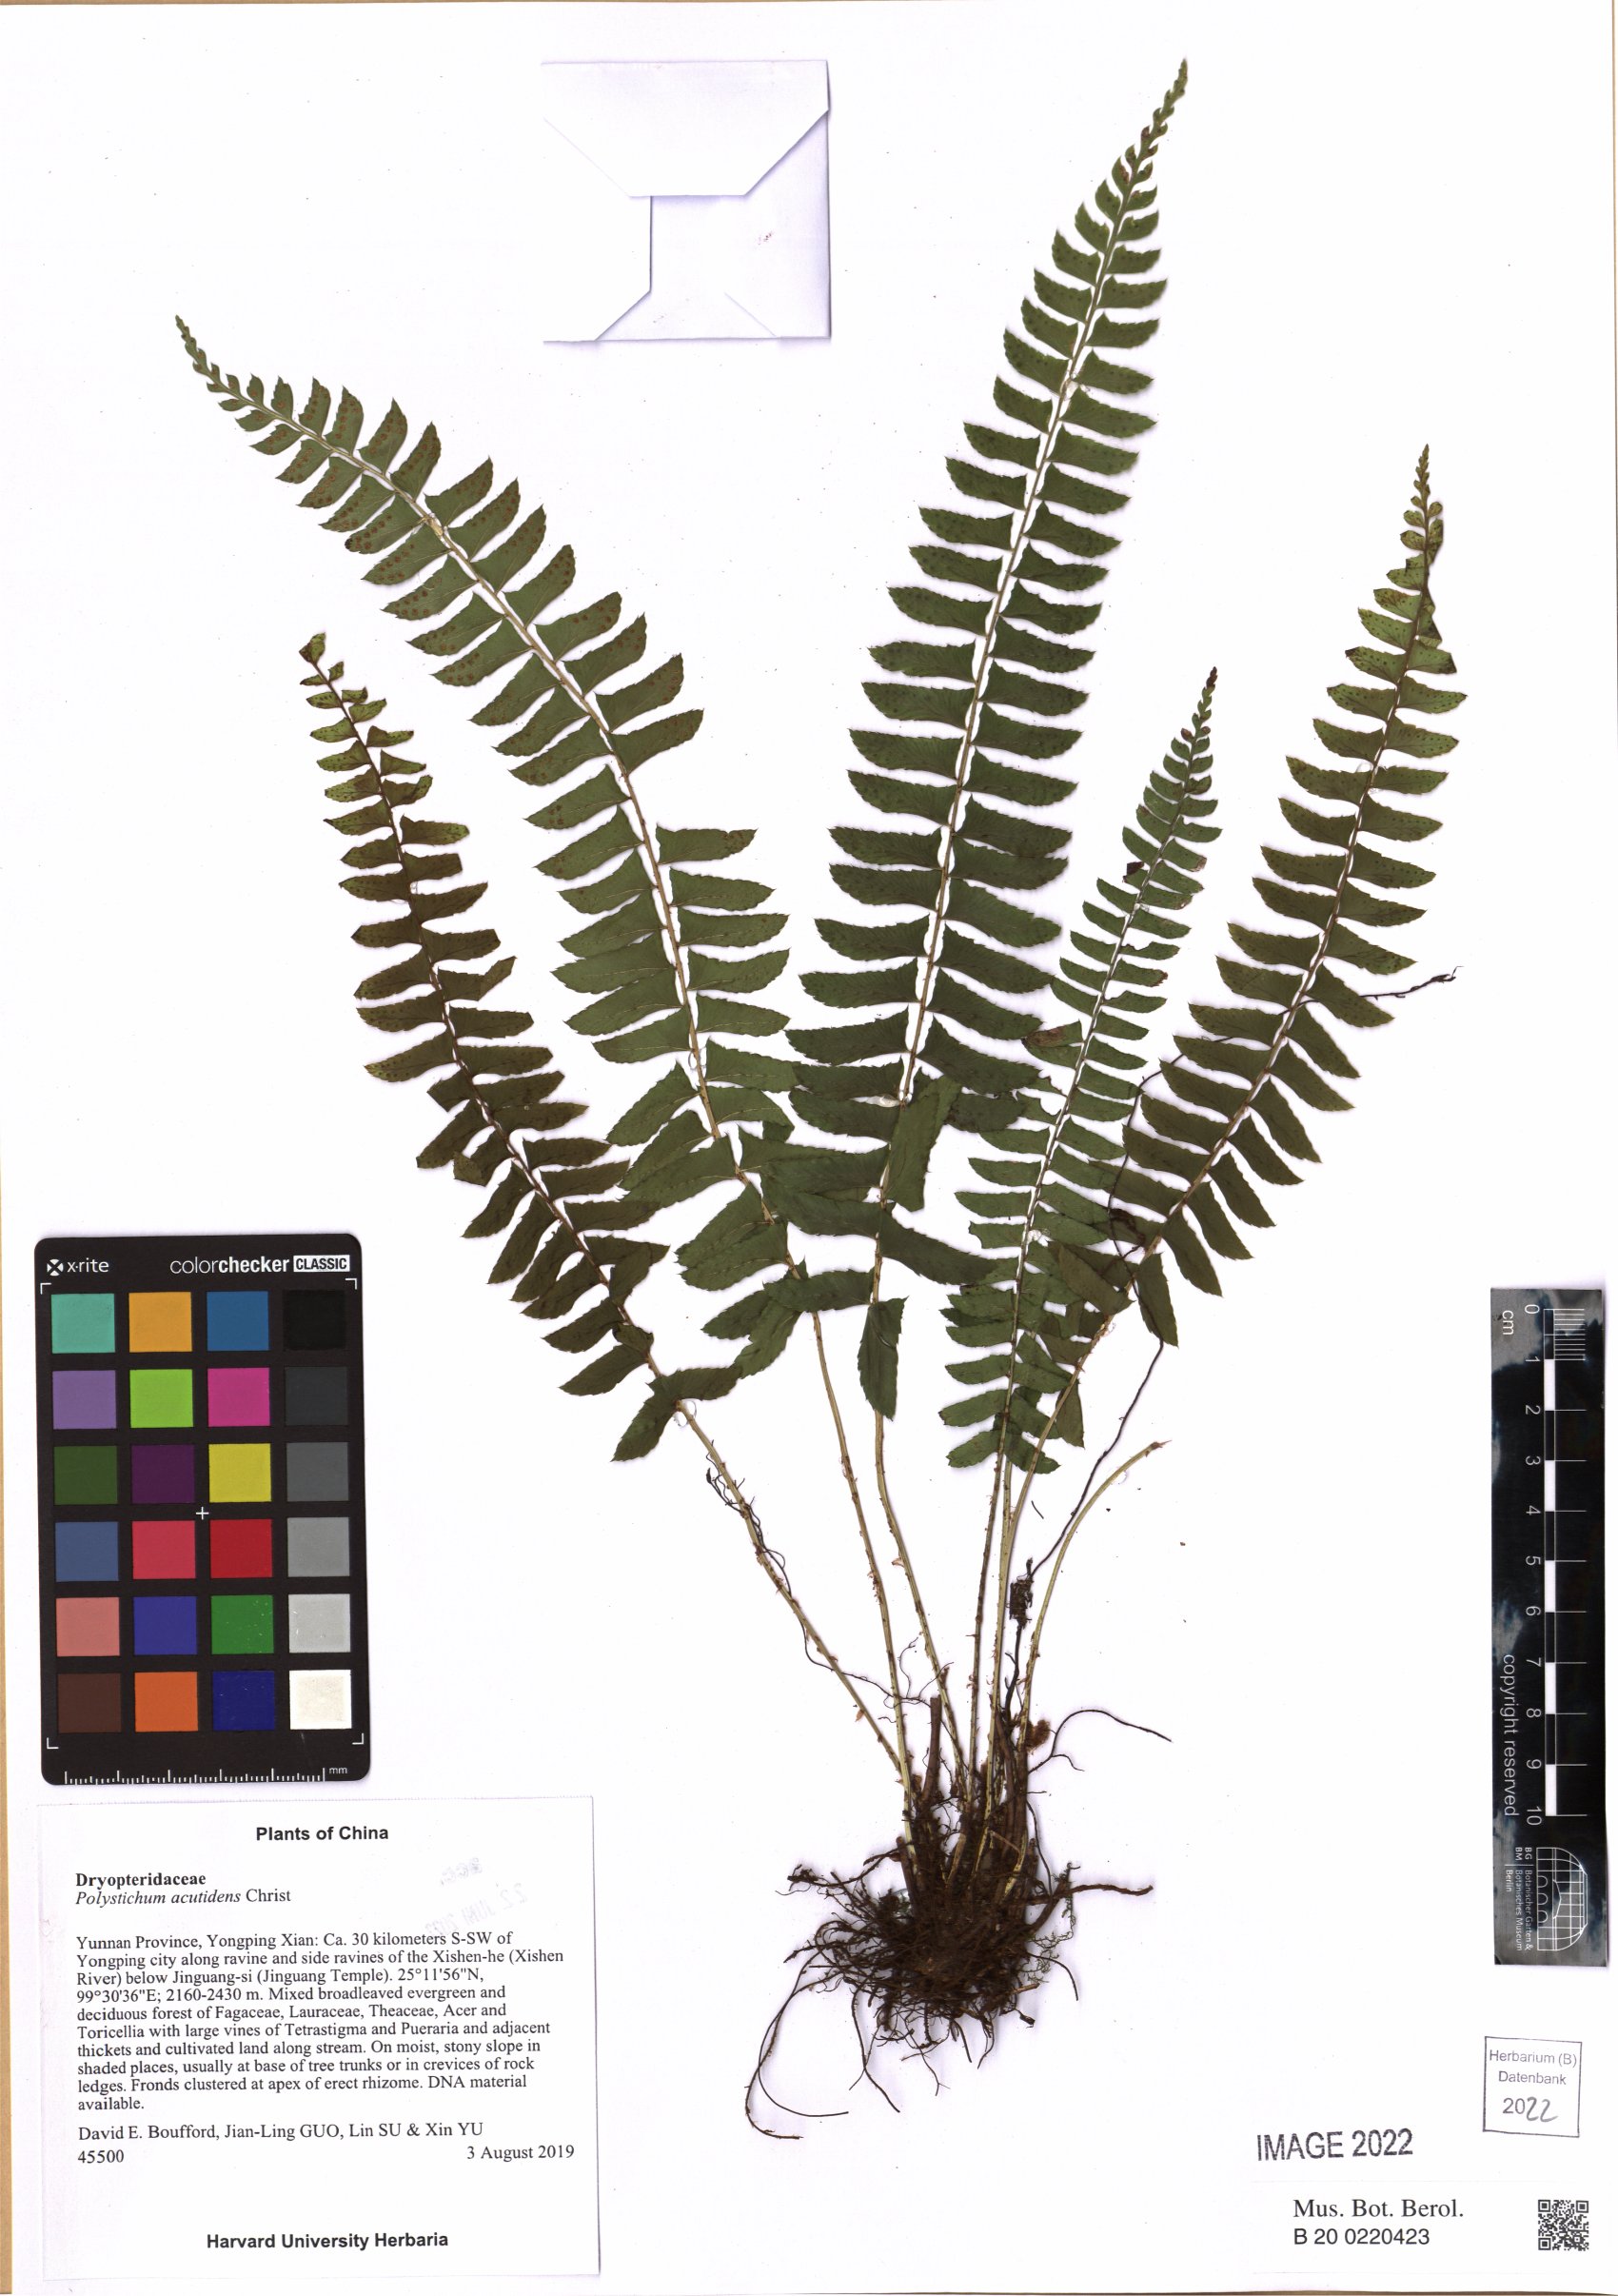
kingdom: Plantae
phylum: Tracheophyta
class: Polypodiopsida
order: Polypodiales
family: Dryopteridaceae
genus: Polystichum
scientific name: Polystichum acutidens
